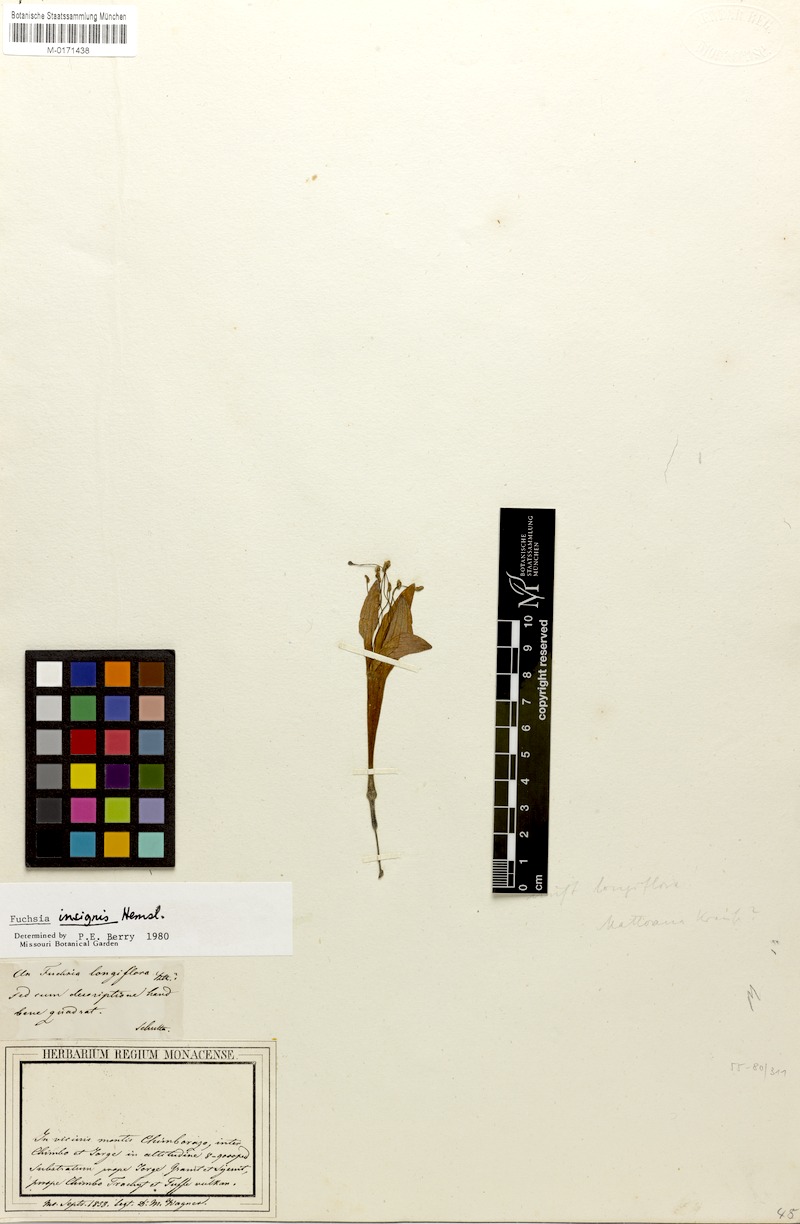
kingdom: Plantae
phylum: Tracheophyta
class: Magnoliopsida
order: Myrtales
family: Onagraceae
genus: Fuchsia
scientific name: Fuchsia insignis
